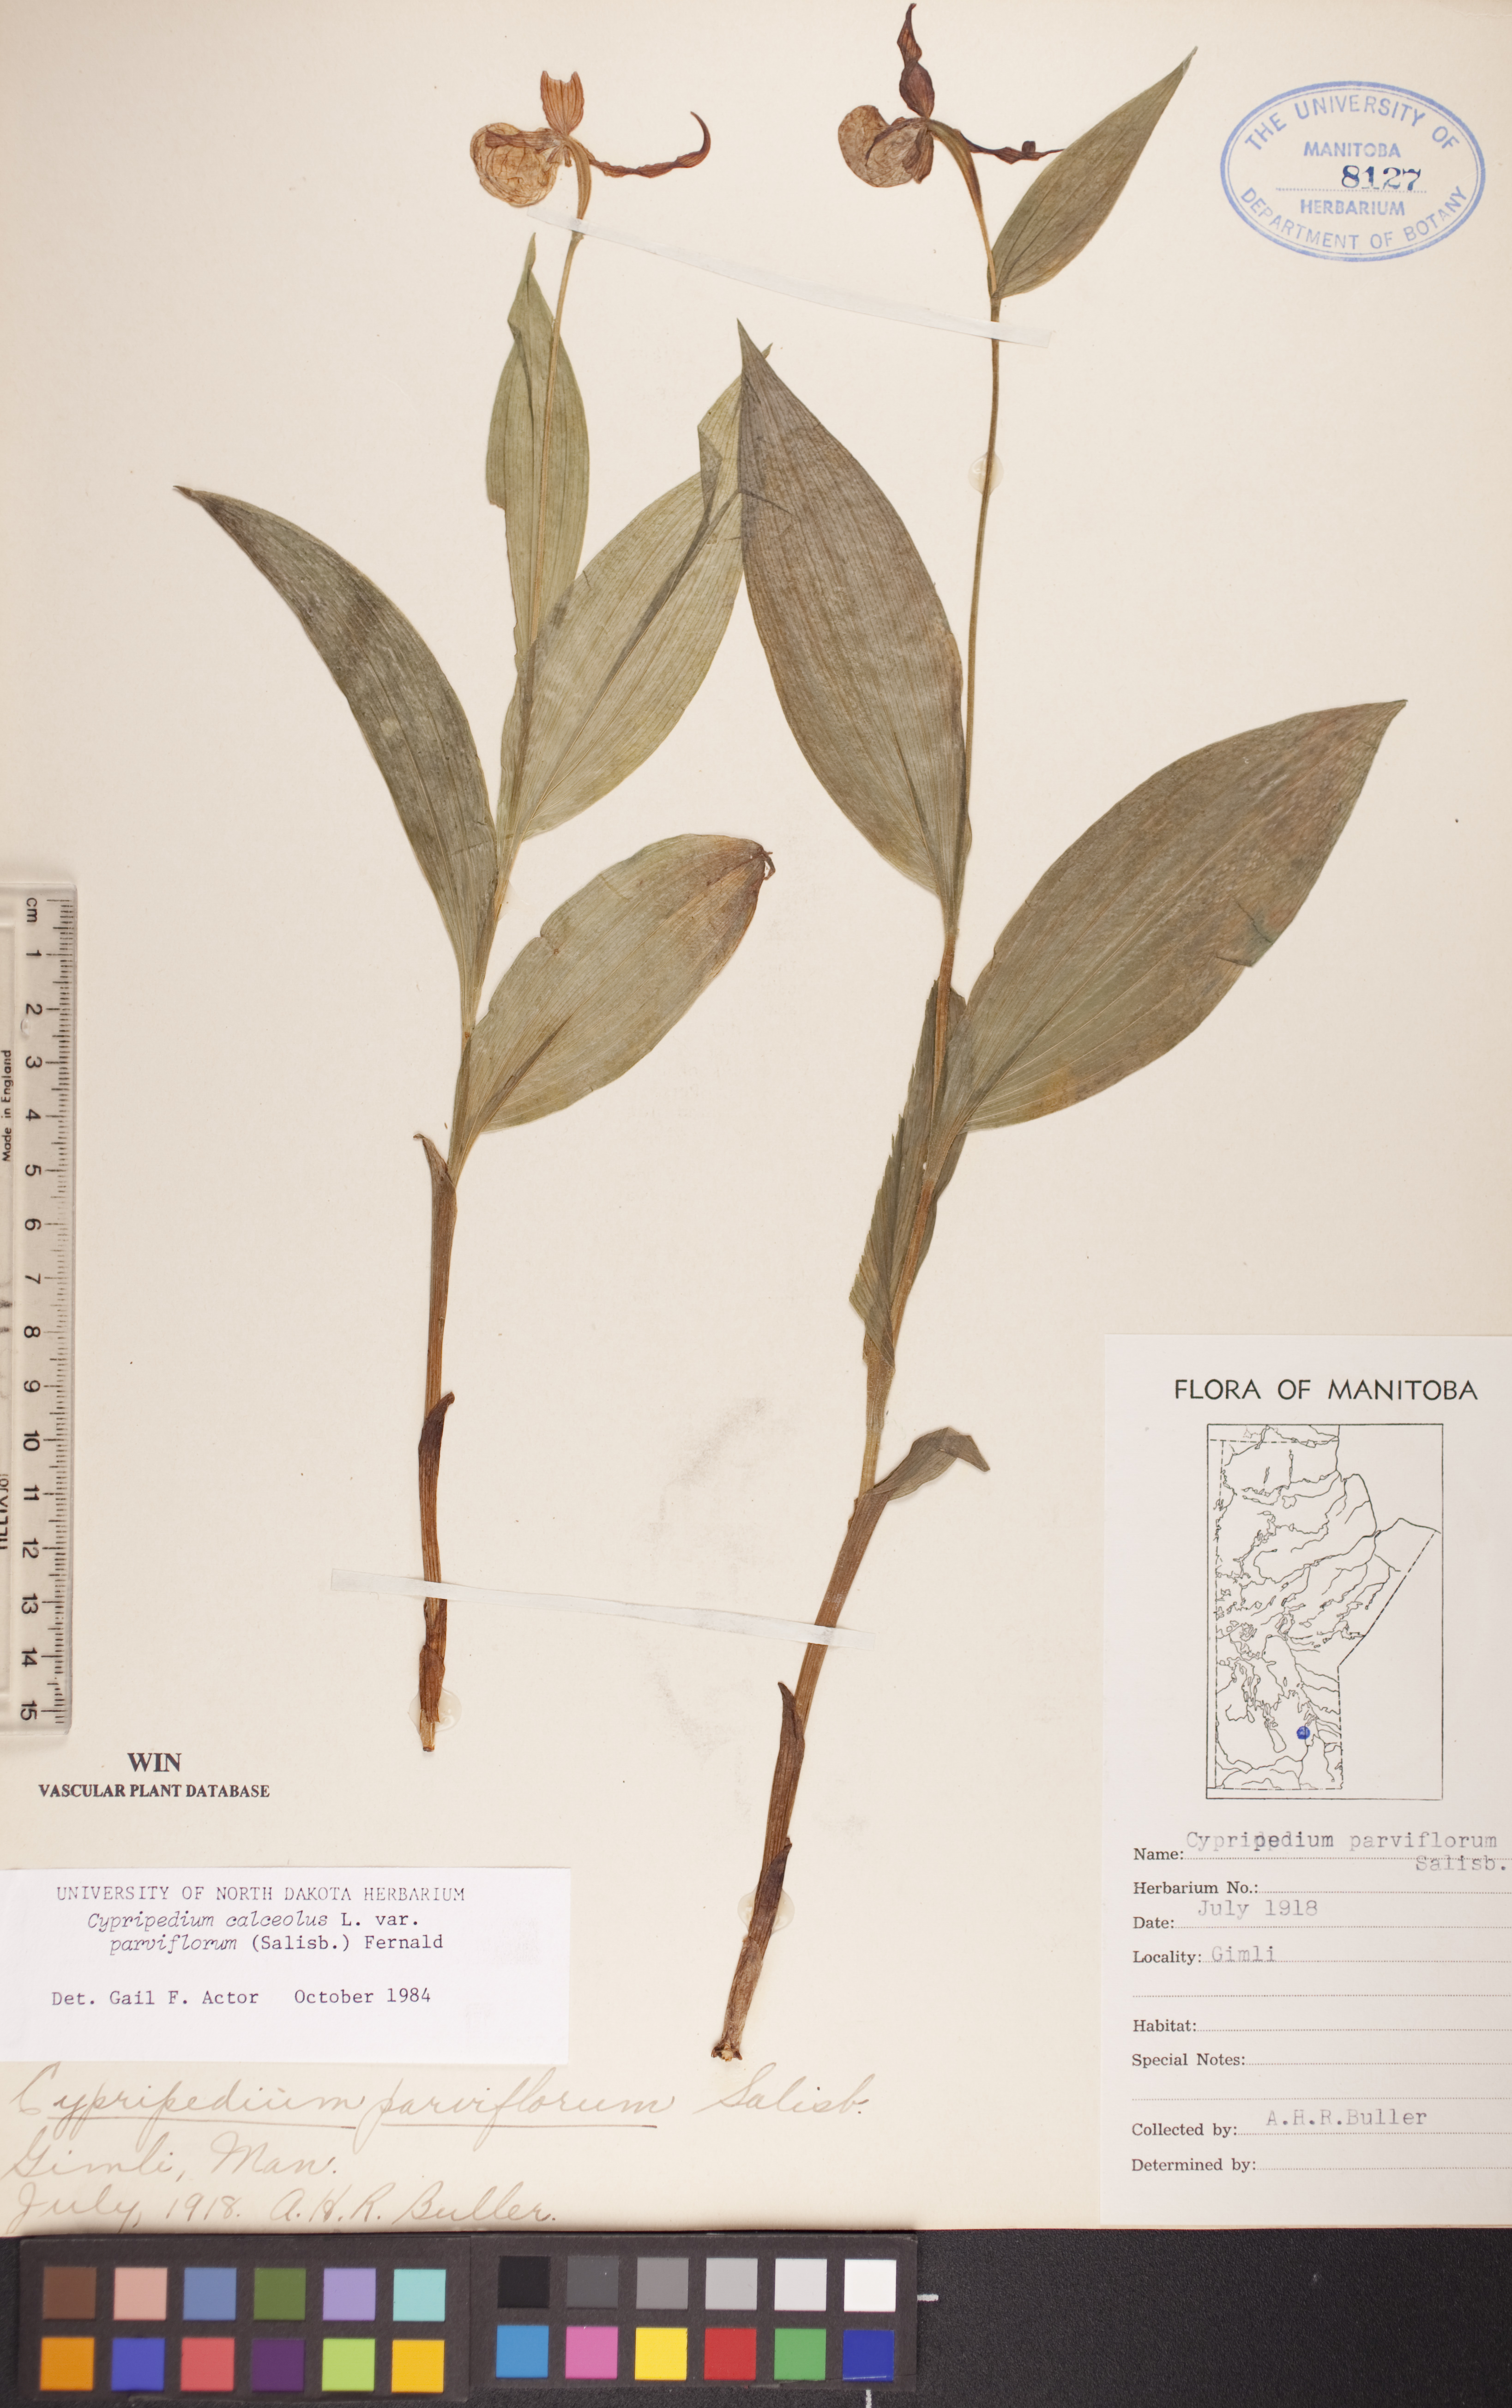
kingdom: Plantae
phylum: Tracheophyta
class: Liliopsida
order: Asparagales
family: Orchidaceae
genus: Cypripedium
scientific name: Cypripedium parviflorum
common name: American yellow lady's-slipper
